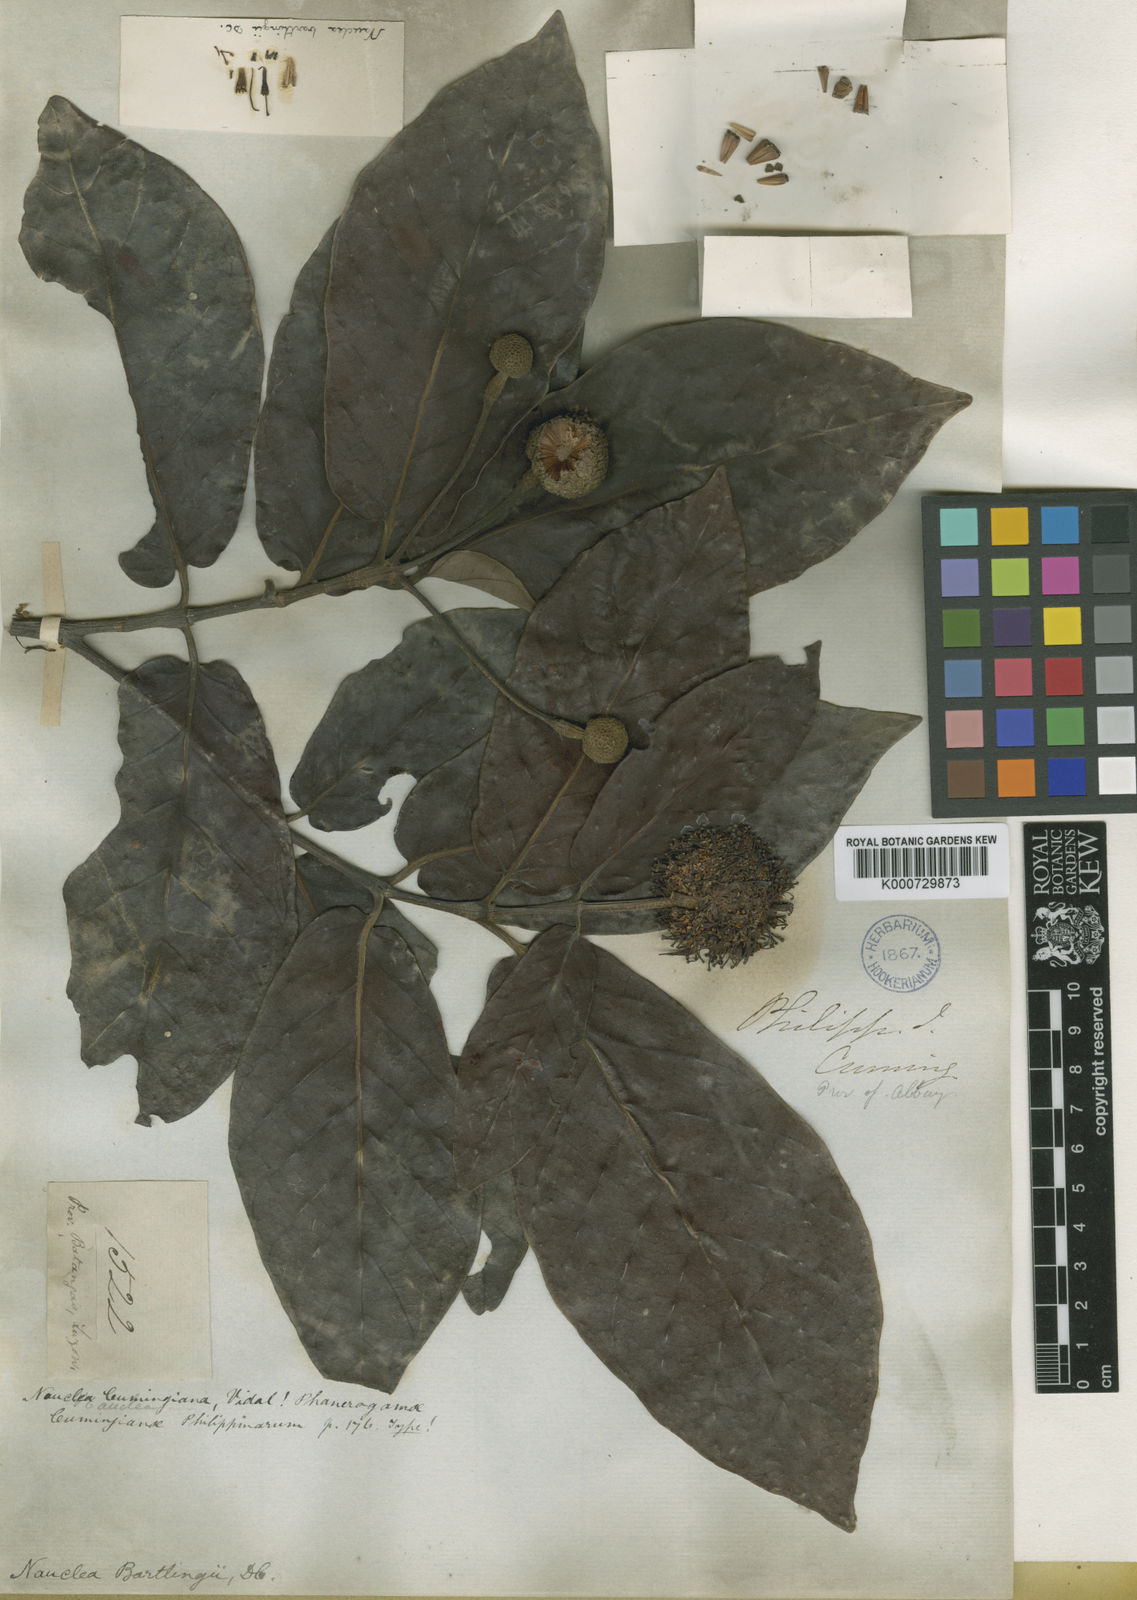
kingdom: Plantae
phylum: Tracheophyta
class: Magnoliopsida
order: Gentianales
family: Rubiaceae
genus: Neonauclea
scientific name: Neonauclea bartlingii
